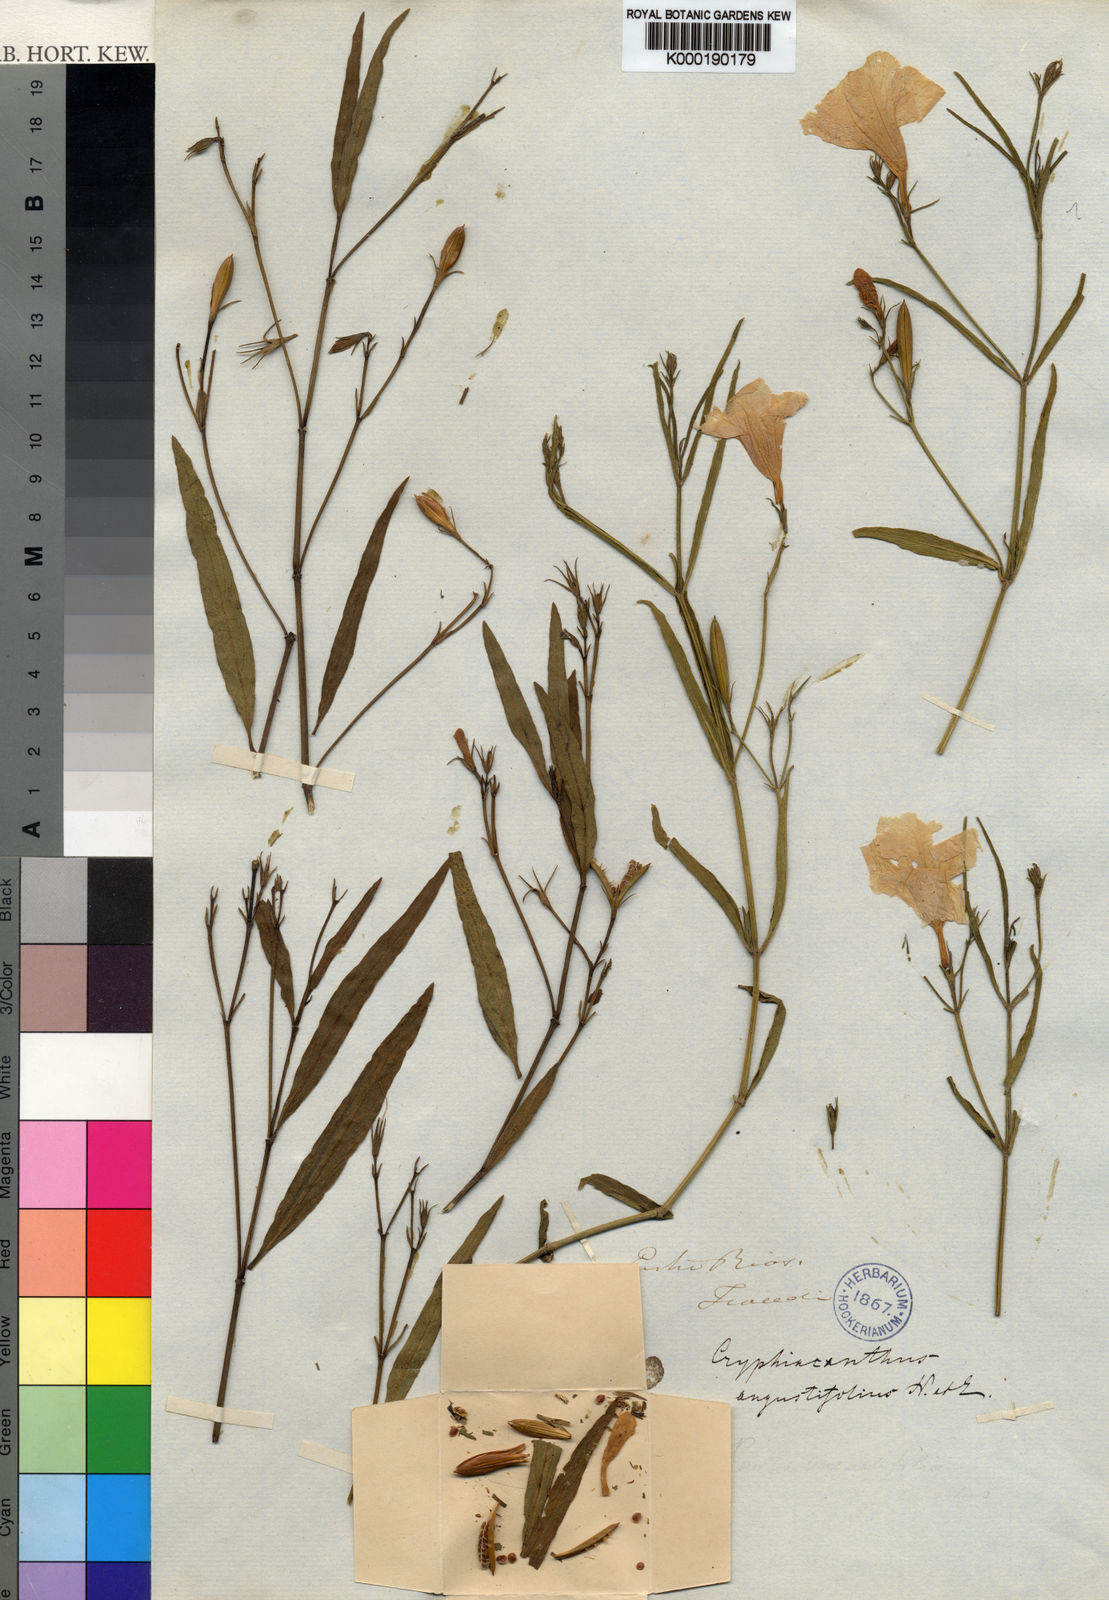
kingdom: Plantae
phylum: Tracheophyta
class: Magnoliopsida
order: Lamiales
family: Acanthaceae
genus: Ruellia
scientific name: Ruellia simplex
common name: Softseed wild petunia
